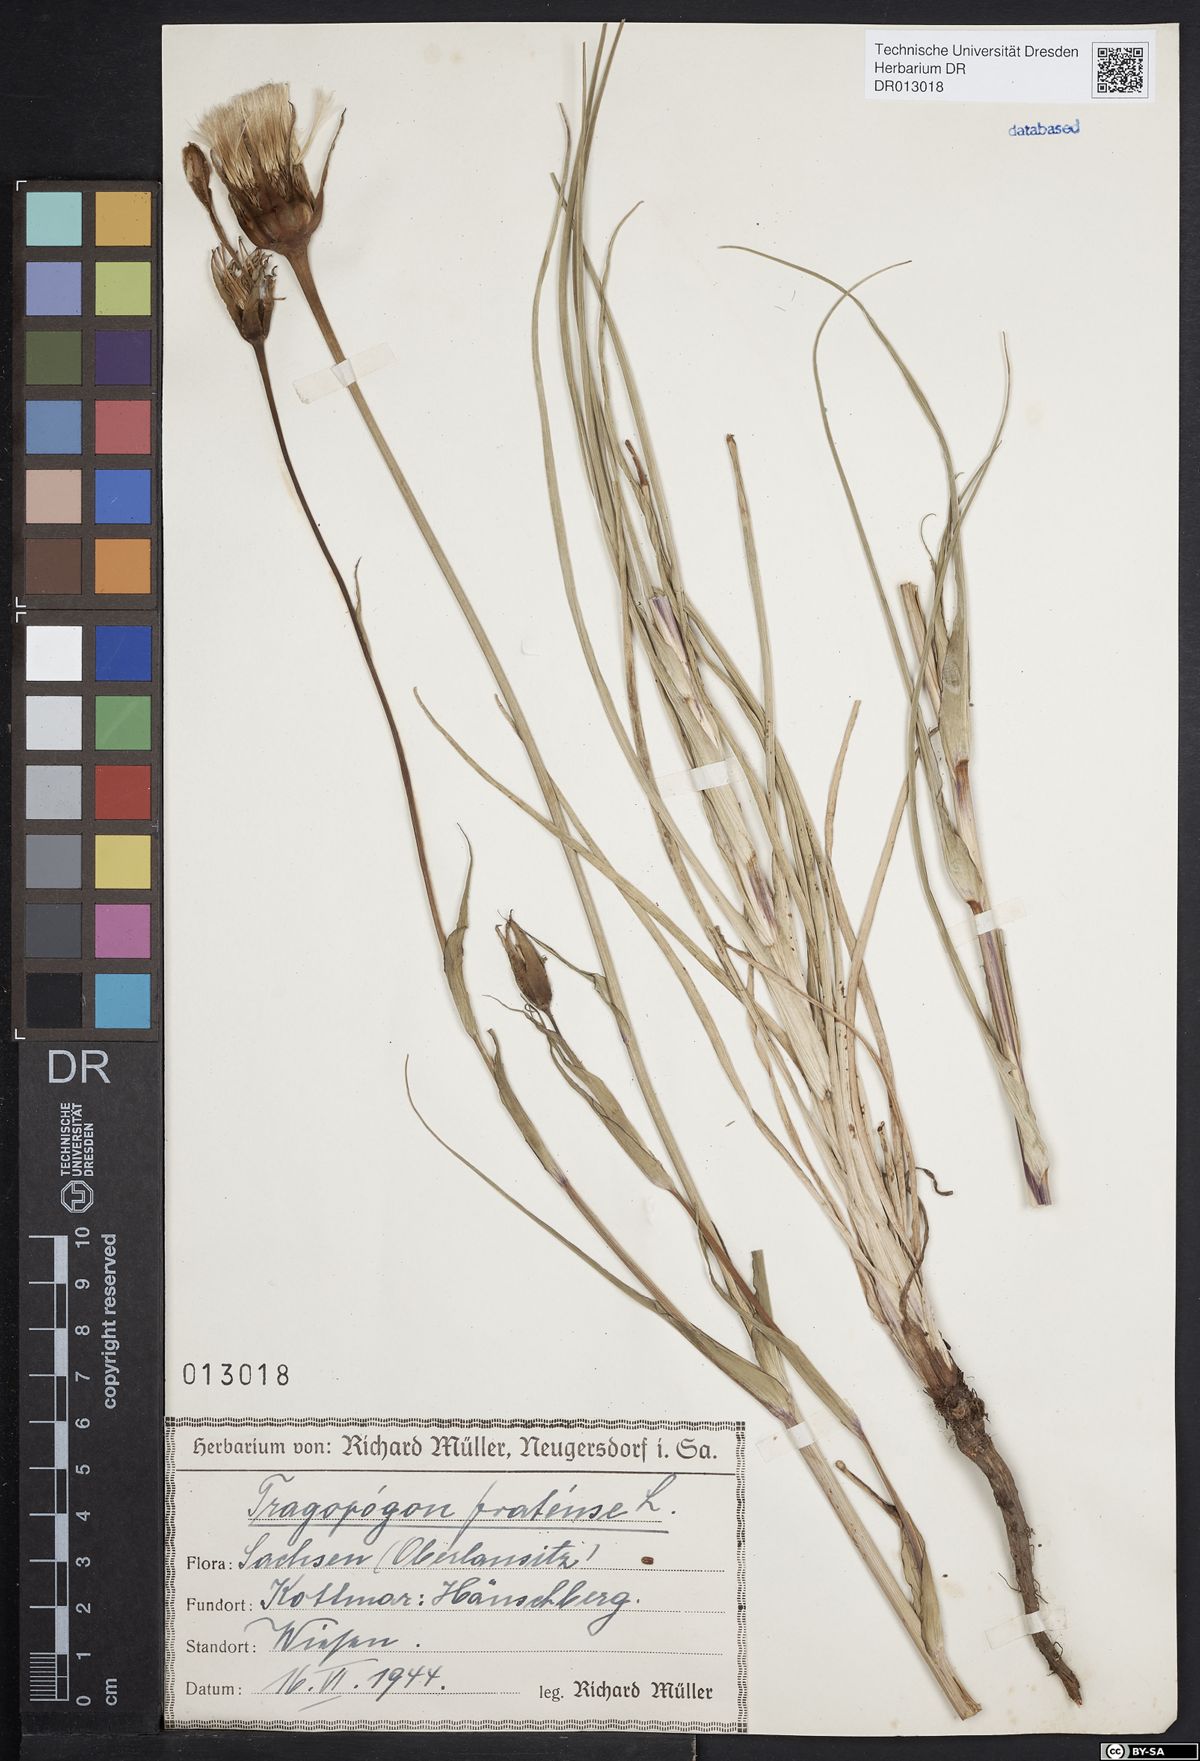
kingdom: Plantae
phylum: Tracheophyta
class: Magnoliopsida
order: Asterales
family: Asteraceae
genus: Tragopogon
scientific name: Tragopogon pratensis
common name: Goat's-beard
